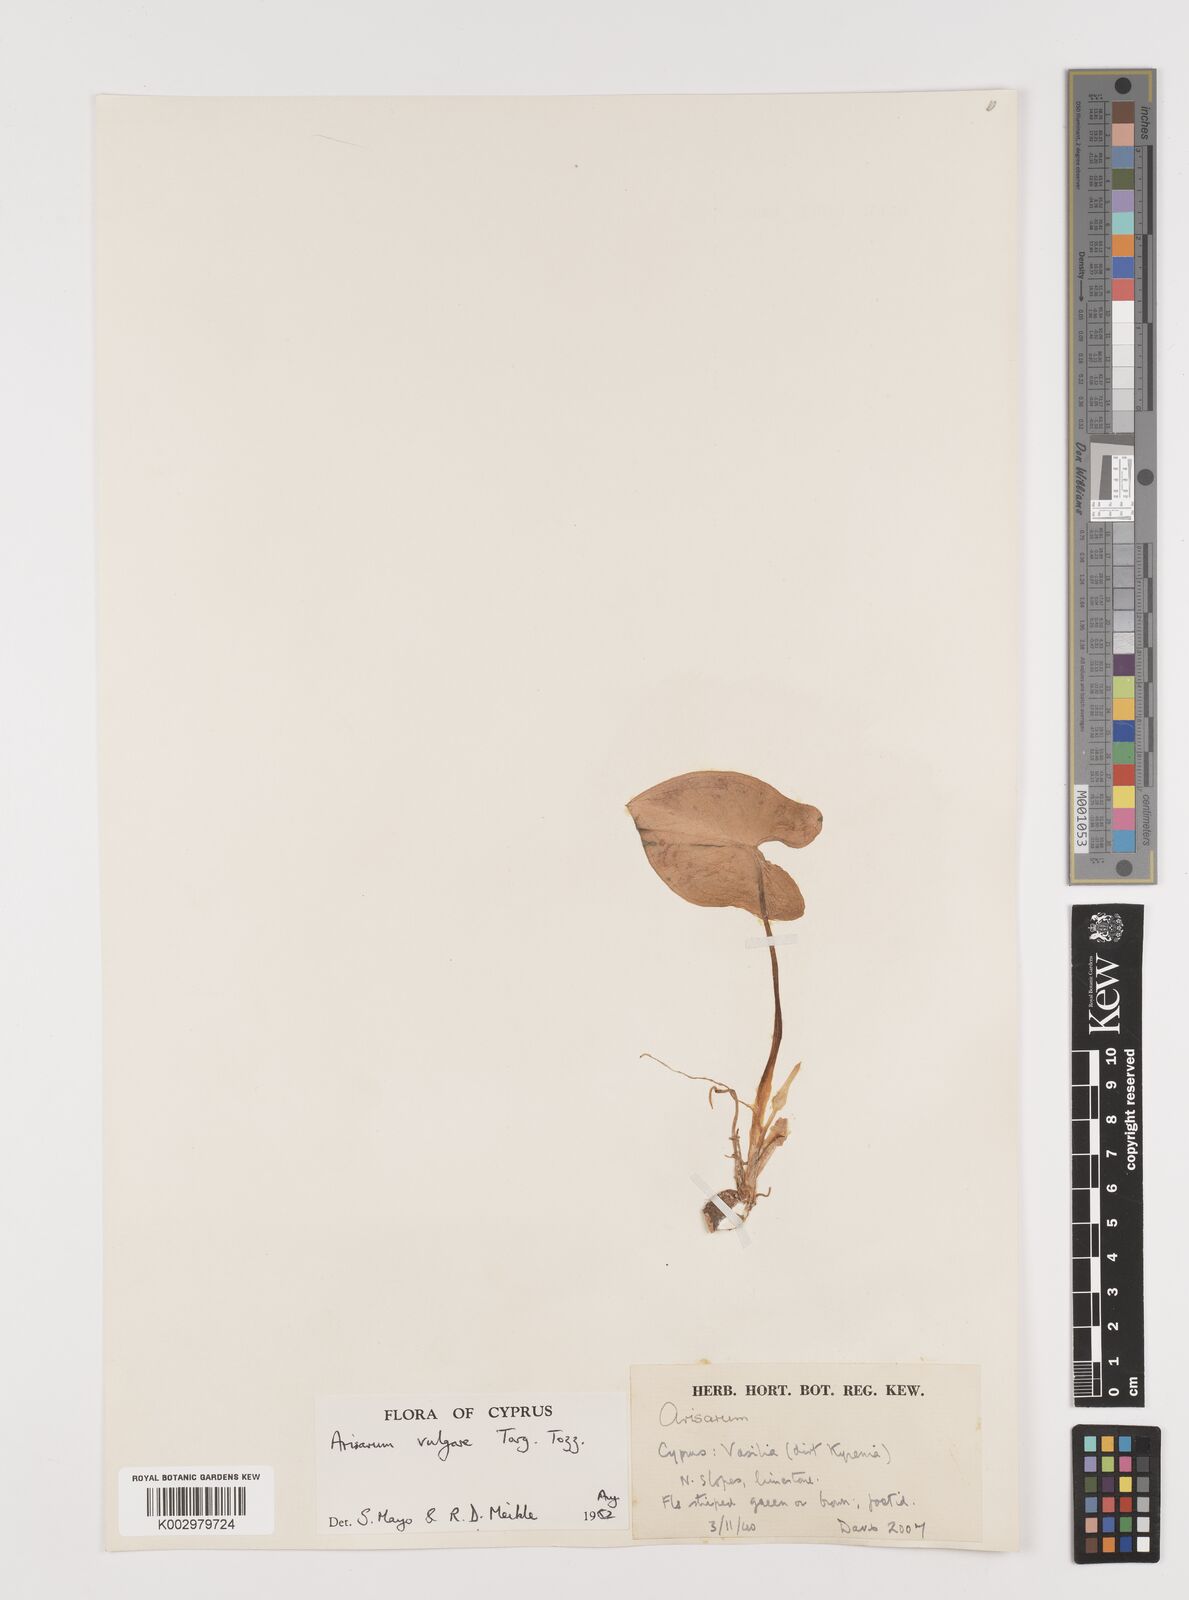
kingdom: Plantae
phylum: Tracheophyta
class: Liliopsida
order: Alismatales
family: Araceae
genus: Arisarum
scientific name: Arisarum vulgare
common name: Common arisarum
